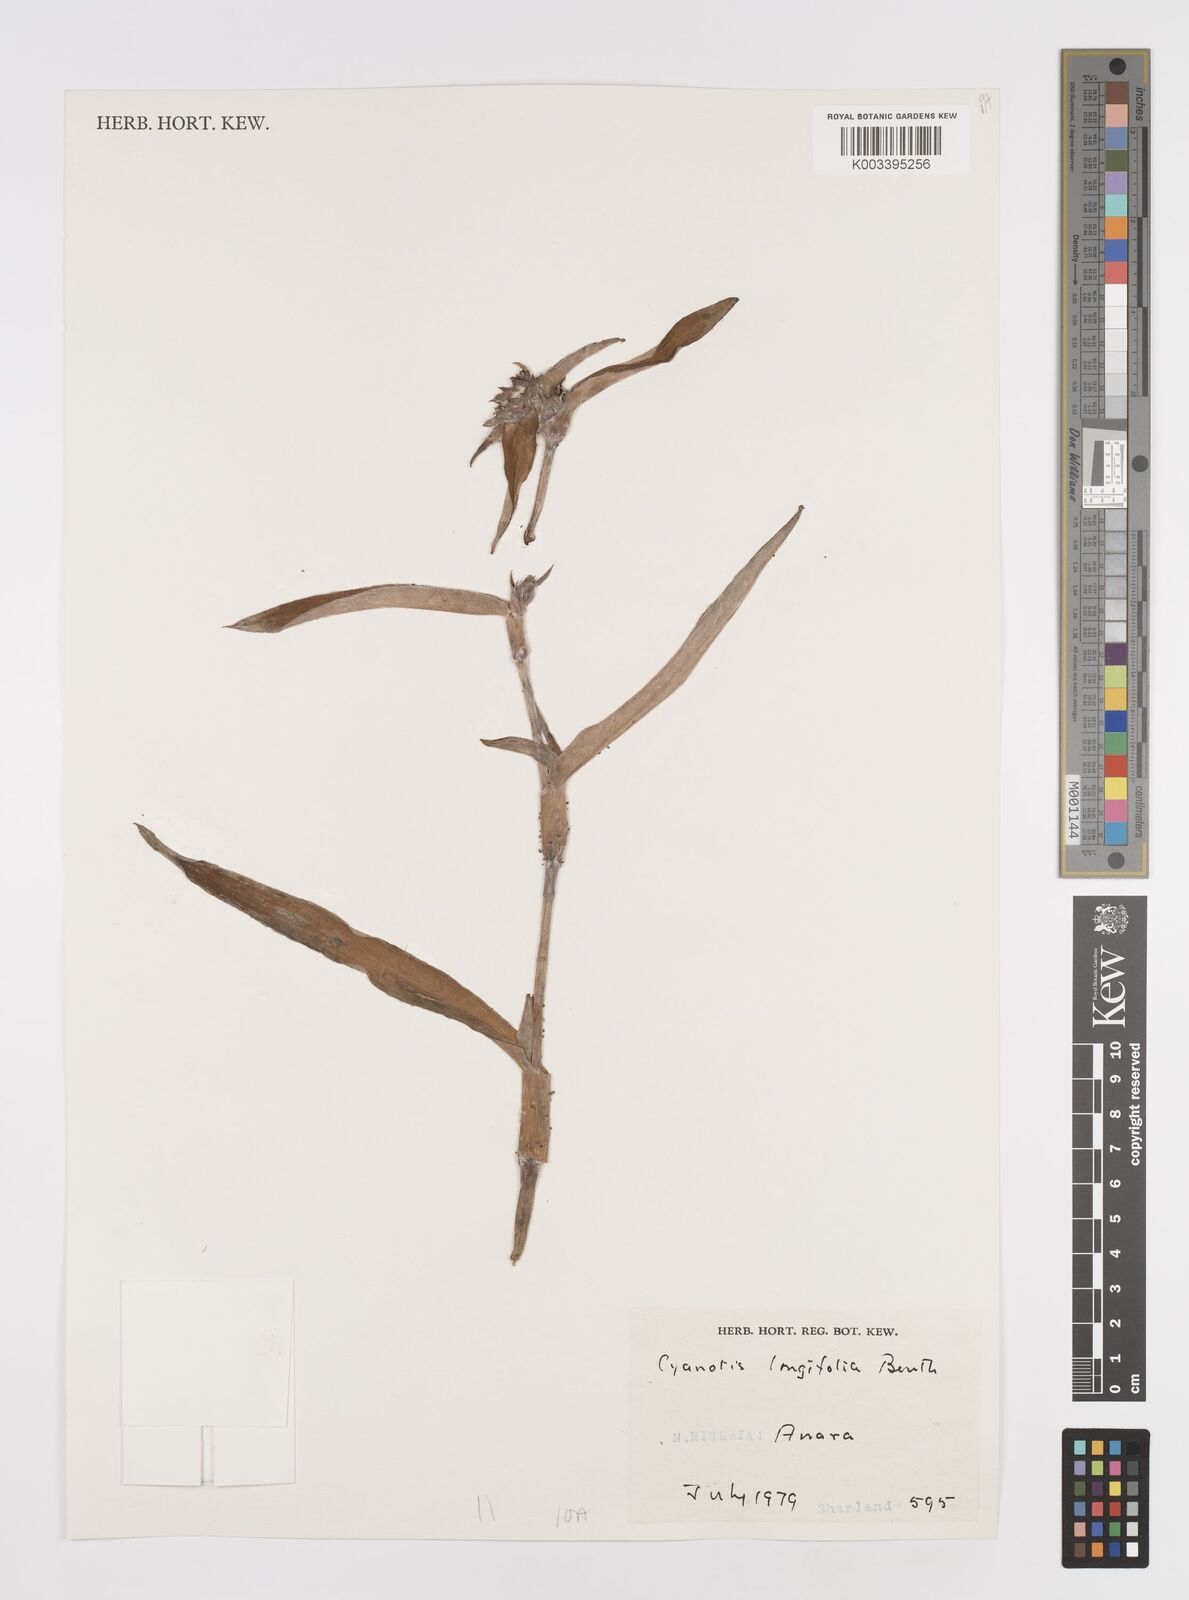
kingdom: Plantae
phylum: Tracheophyta
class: Liliopsida
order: Commelinales
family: Commelinaceae
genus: Cyanotis
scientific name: Cyanotis
